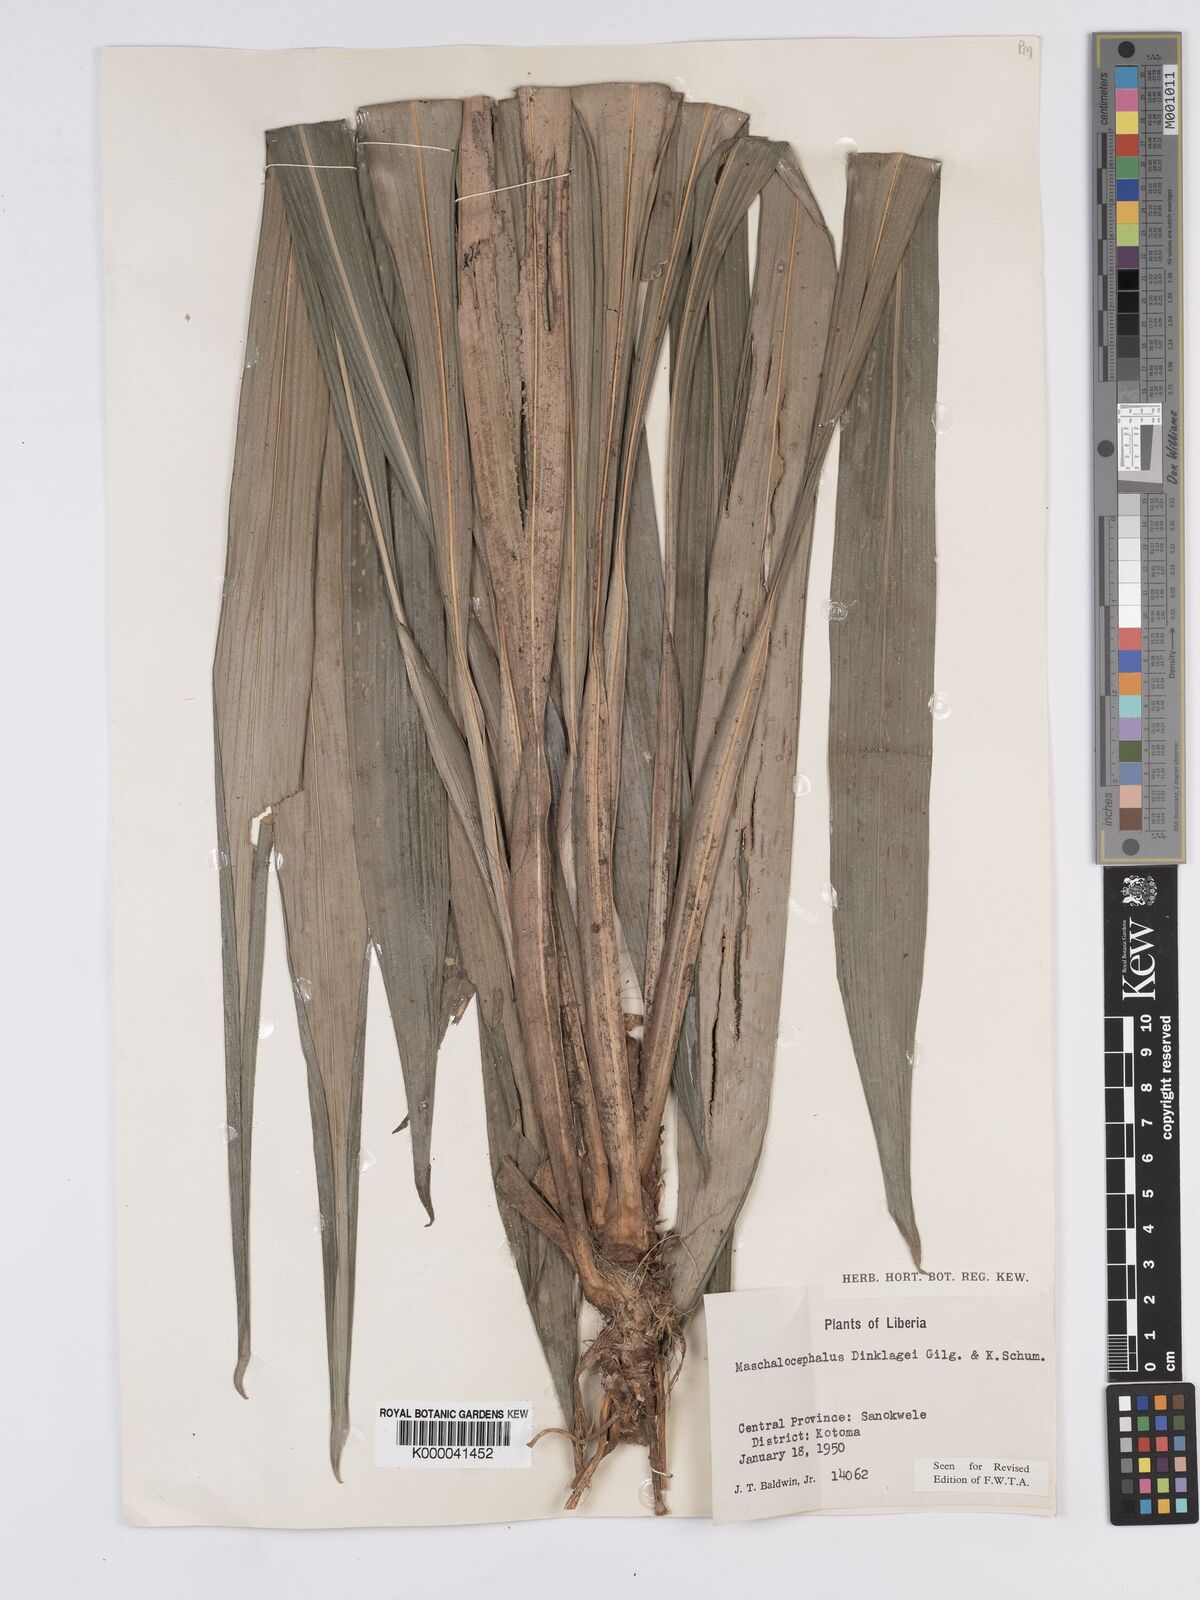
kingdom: Plantae
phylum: Tracheophyta
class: Liliopsida
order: Poales
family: Rapateaceae
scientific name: Rapateaceae
